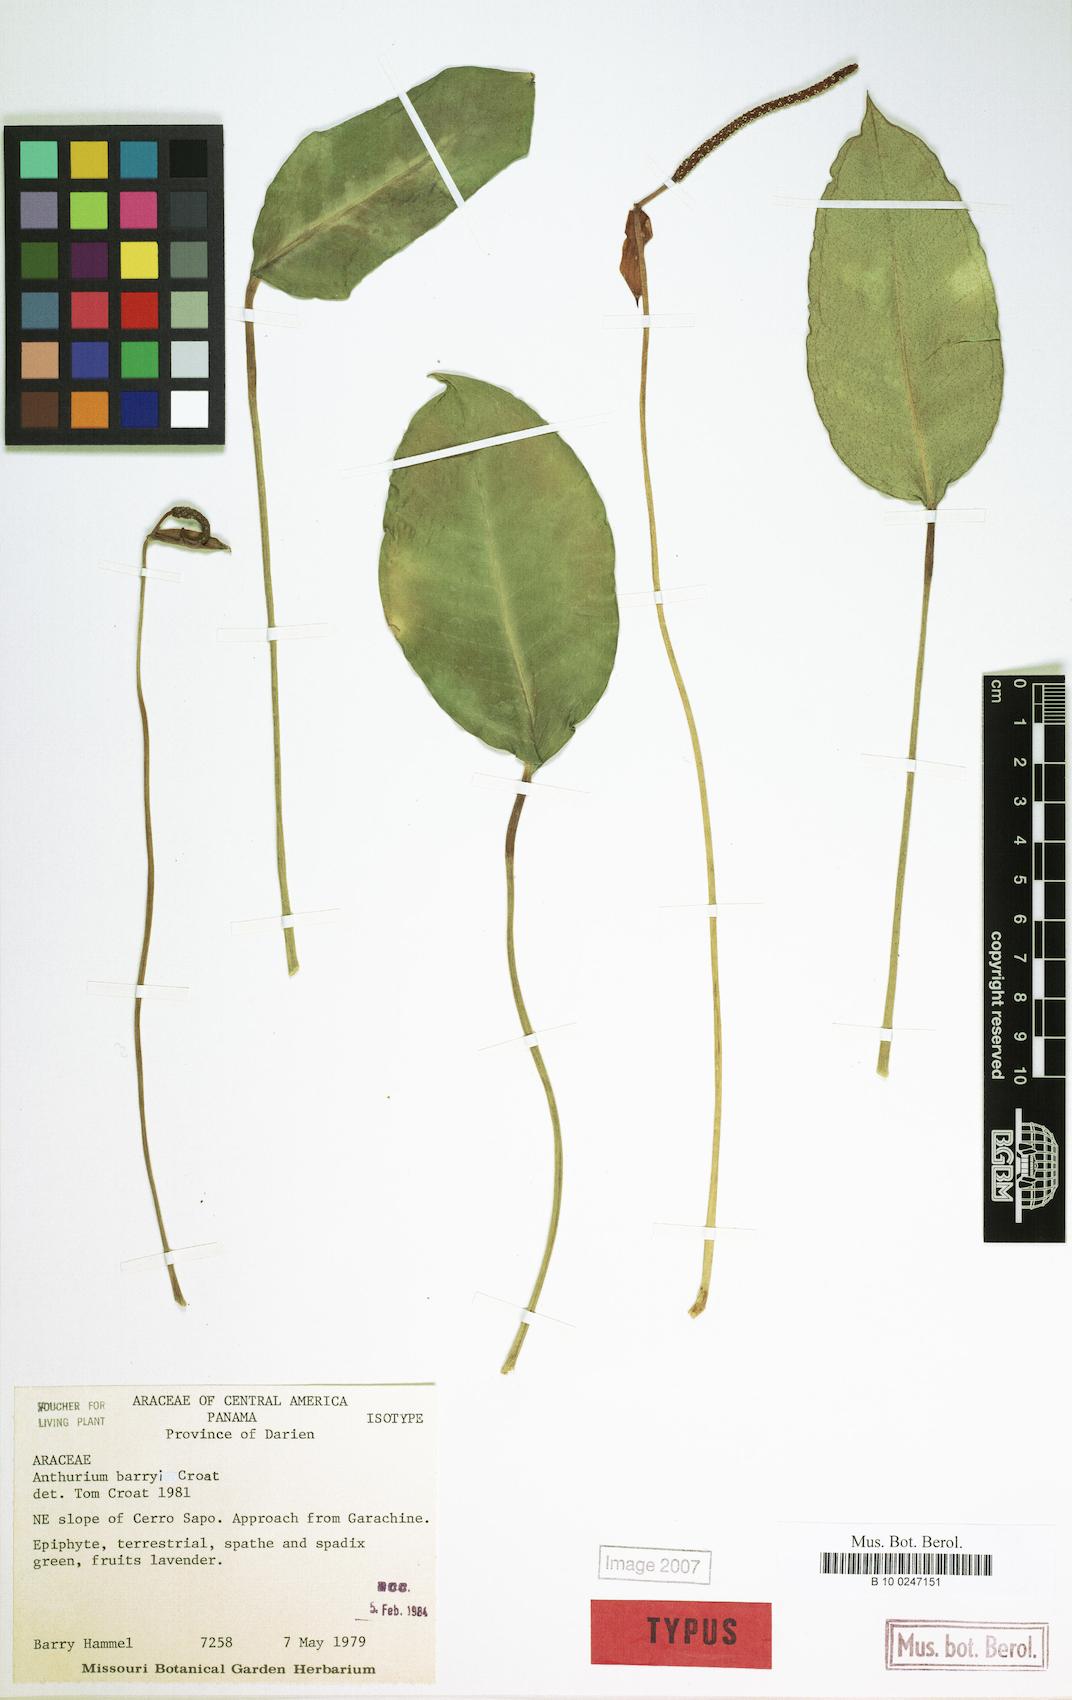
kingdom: Plantae
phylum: Tracheophyta
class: Liliopsida
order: Alismatales
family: Araceae
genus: Anthurium
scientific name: Anthurium barryi
